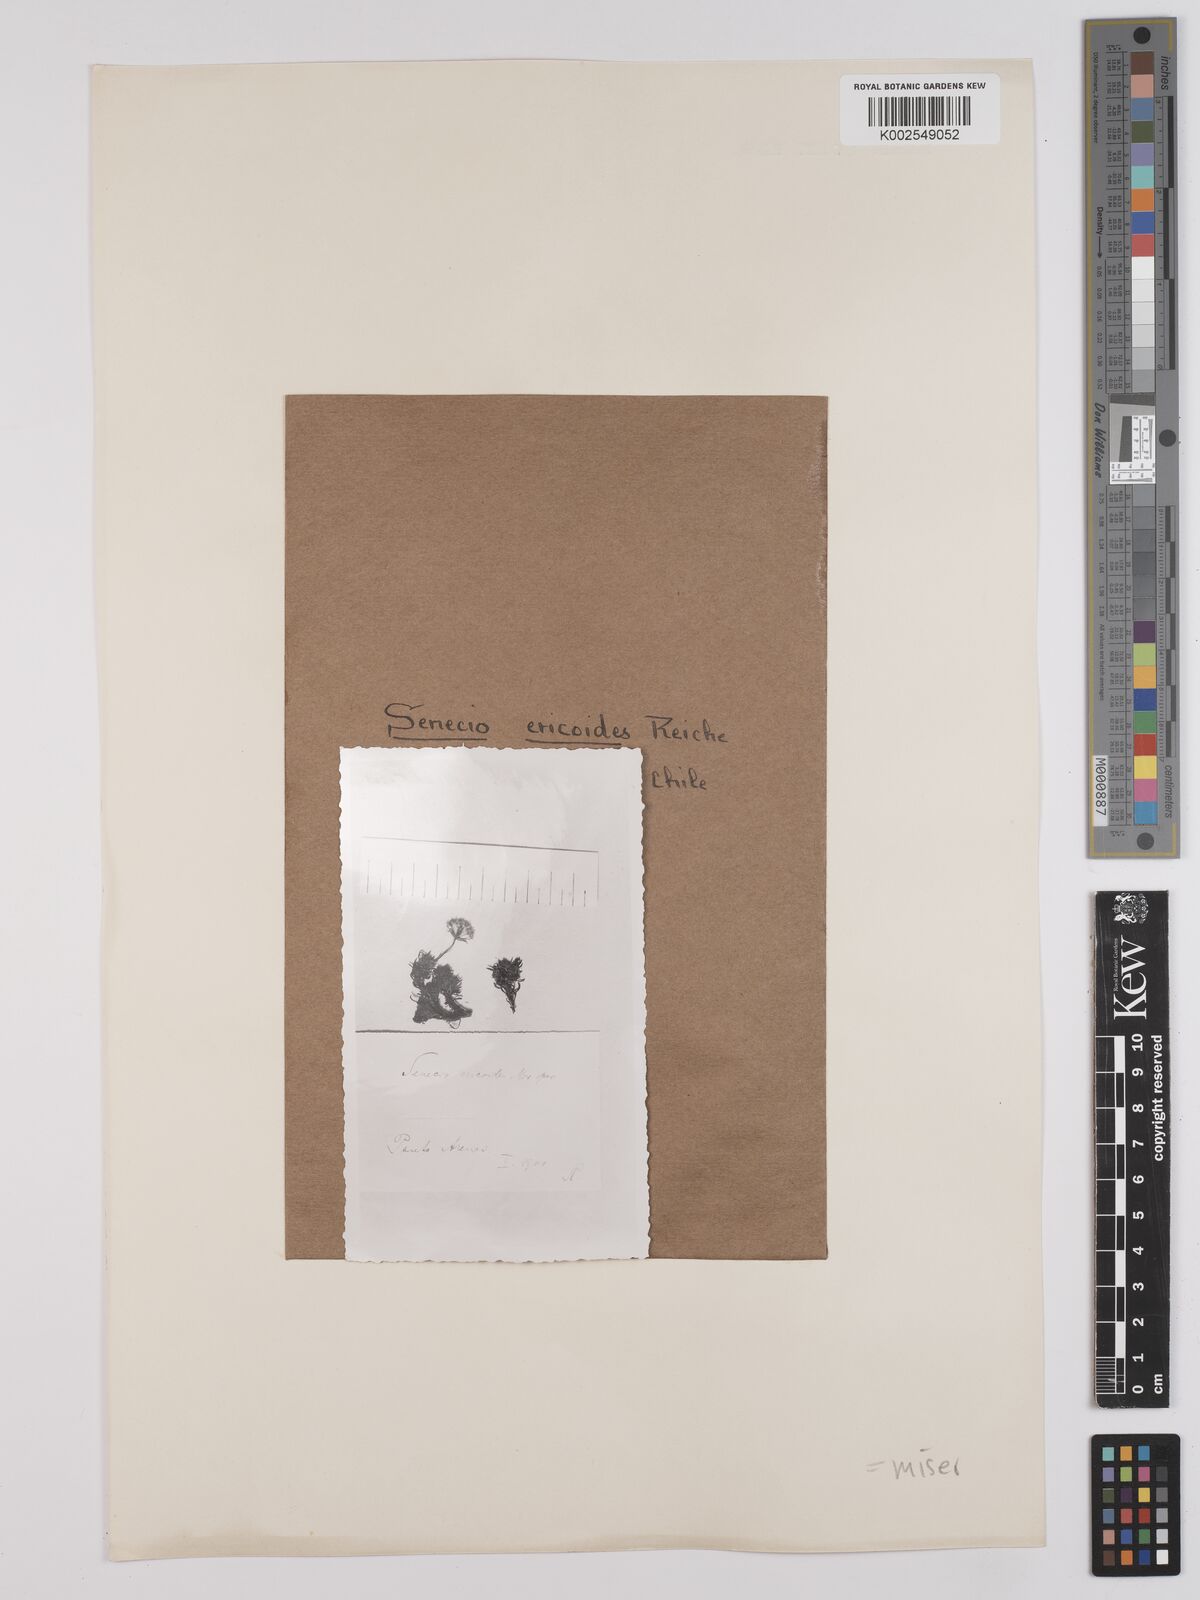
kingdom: Plantae
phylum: Tracheophyta
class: Magnoliopsida
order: Asterales
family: Asteraceae
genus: Senecio
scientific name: Senecio miser
